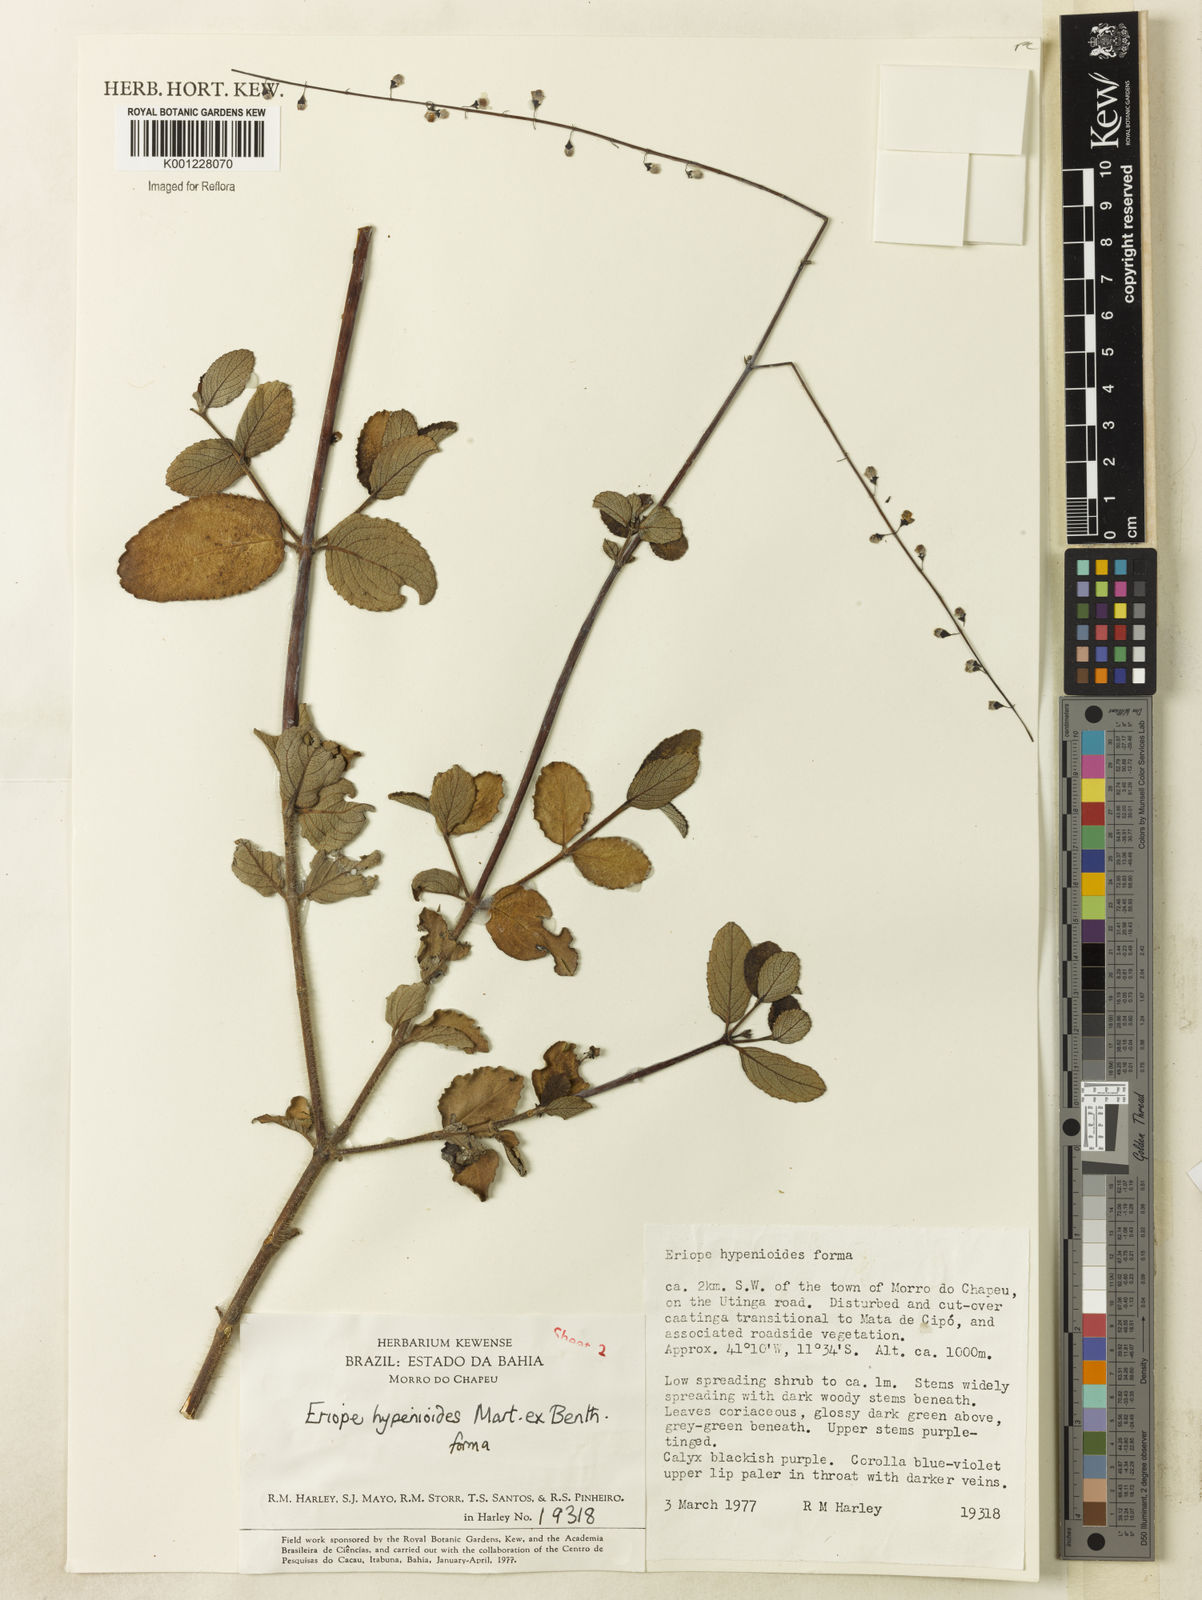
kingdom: Plantae
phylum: Tracheophyta
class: Magnoliopsida
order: Lamiales
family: Lamiaceae
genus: Eriope
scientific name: Eriope hypenioides
